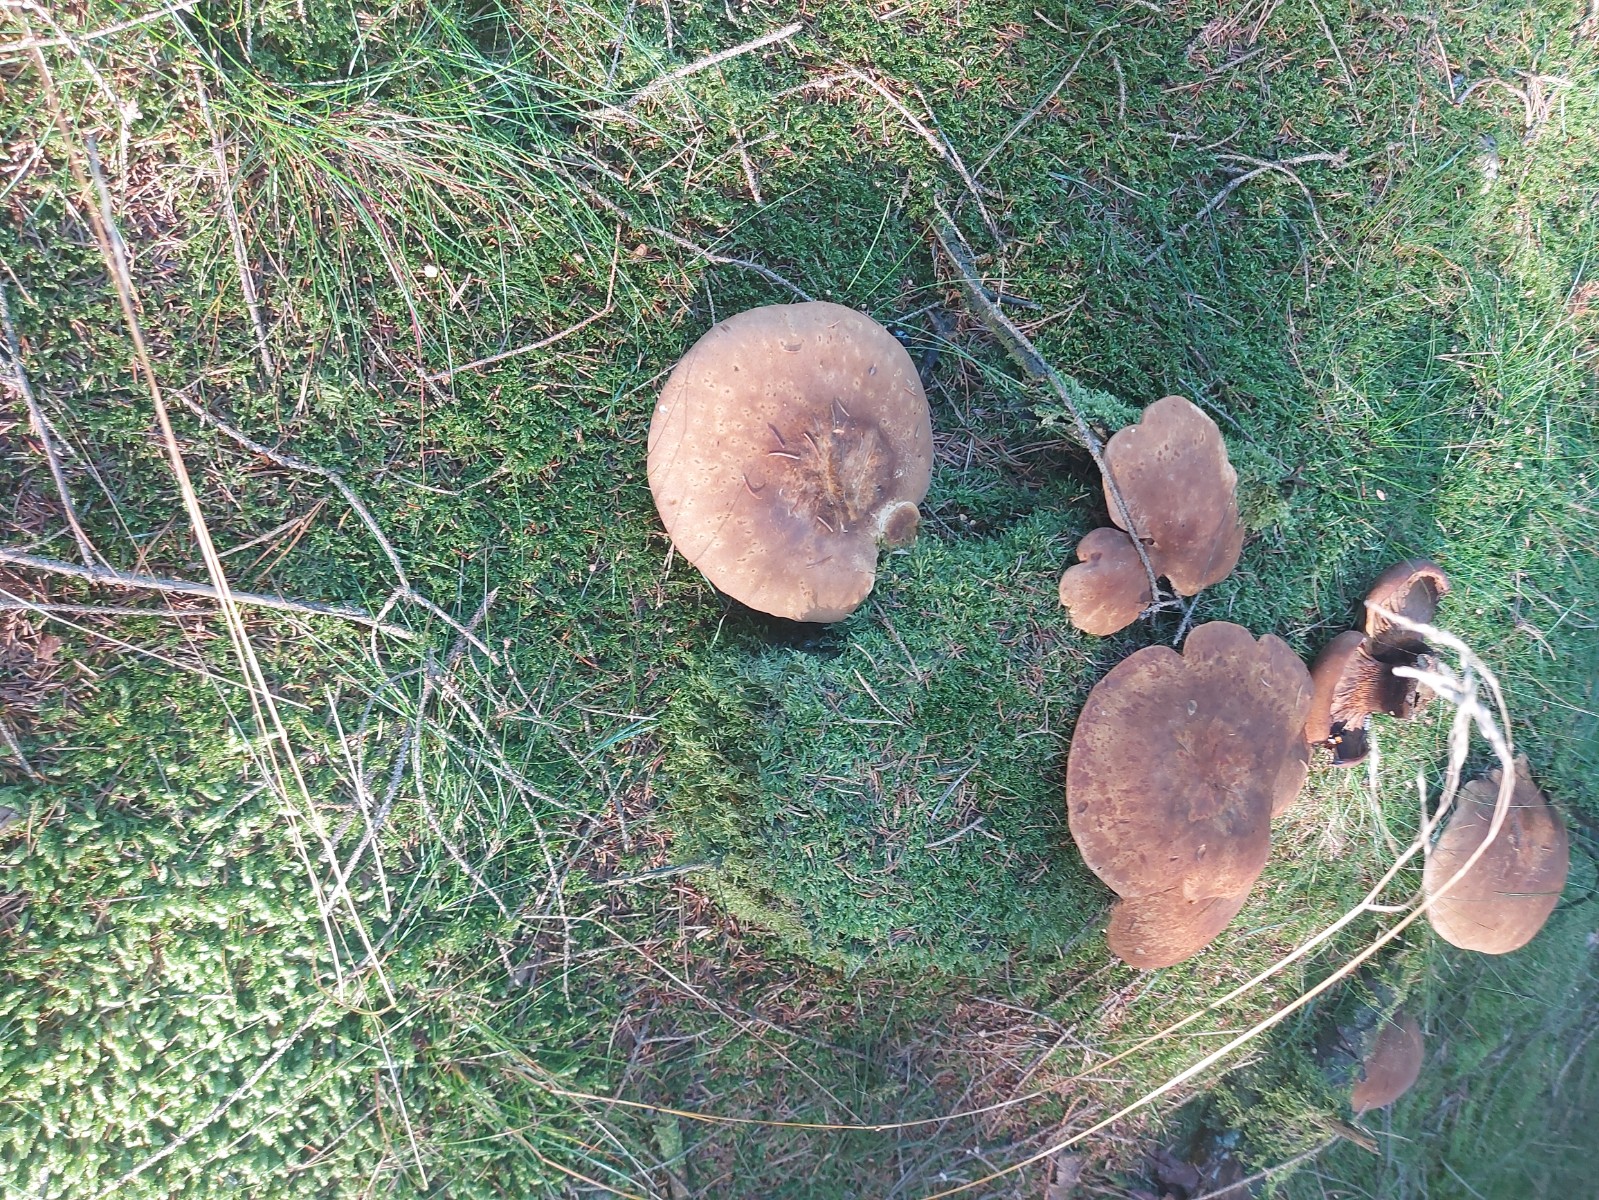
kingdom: Fungi
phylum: Basidiomycota
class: Agaricomycetes
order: Boletales
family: Tapinellaceae
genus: Tapinella
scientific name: Tapinella atrotomentosa
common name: sortfiltet viftesvamp
